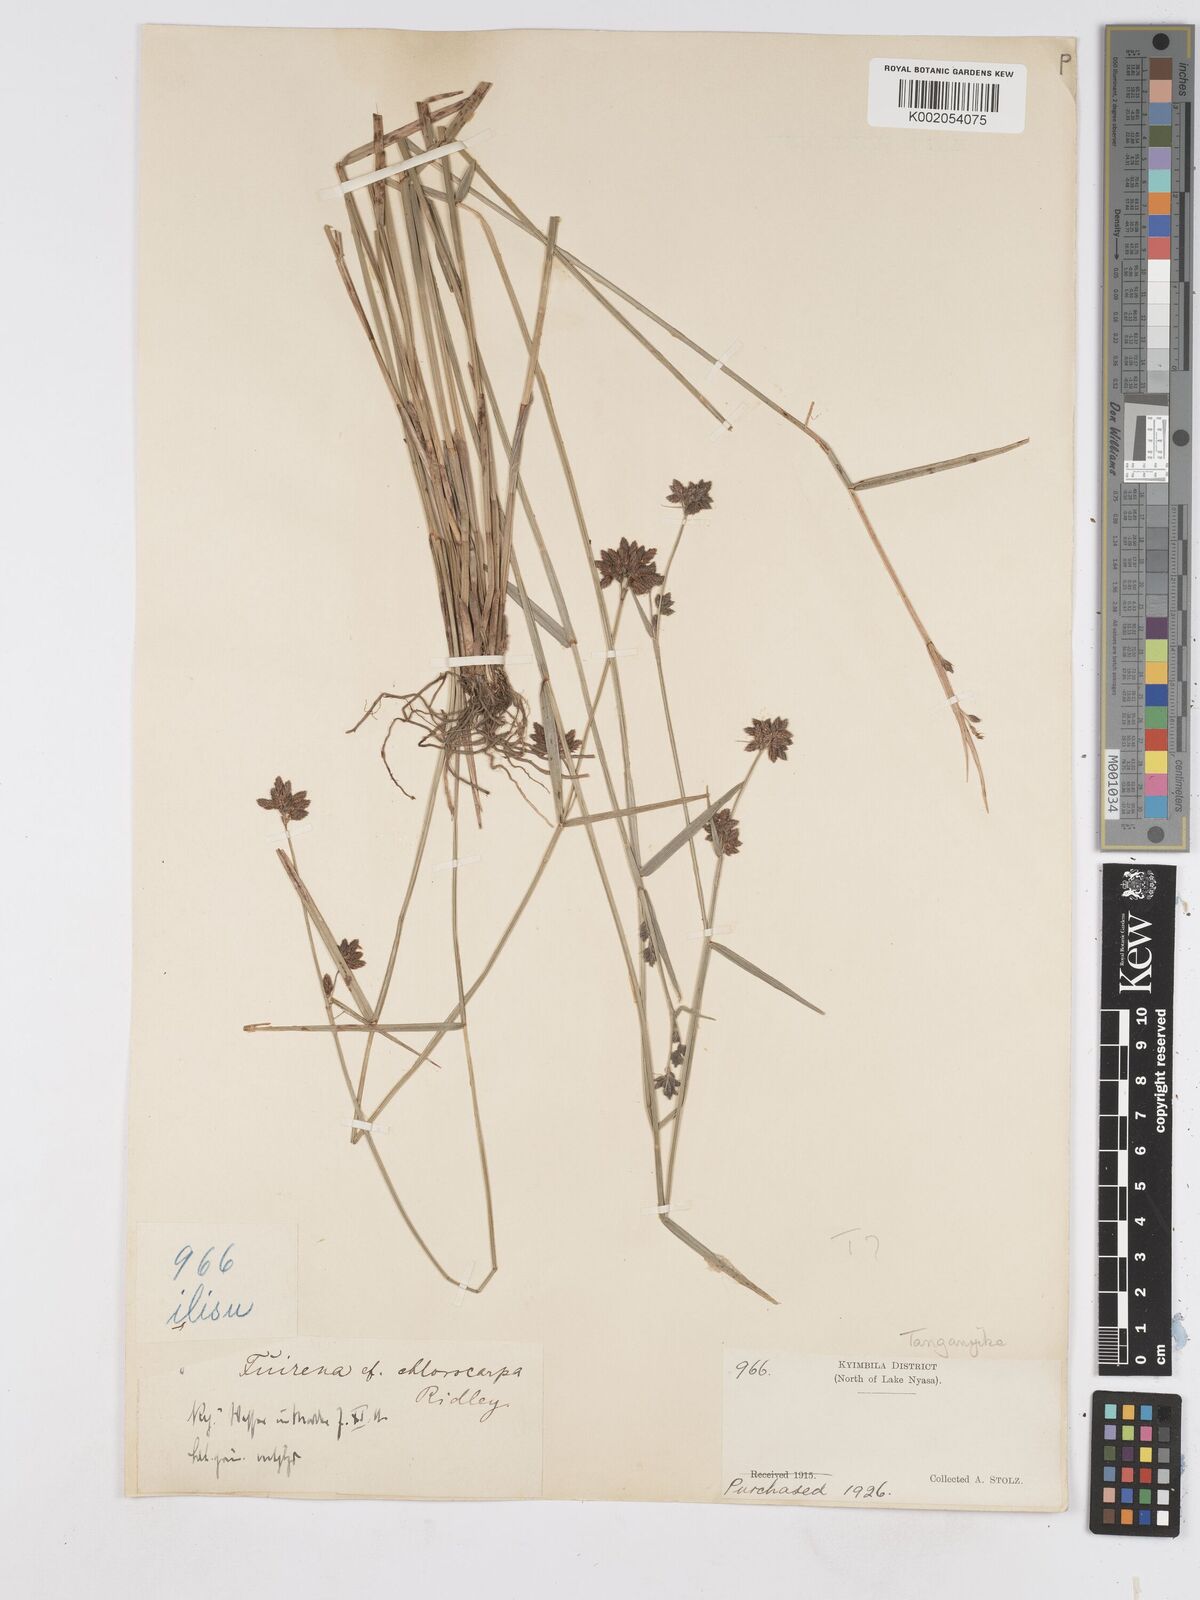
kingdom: Plantae
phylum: Tracheophyta
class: Liliopsida
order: Poales
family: Cyperaceae
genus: Fuirena
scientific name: Fuirena stricta
